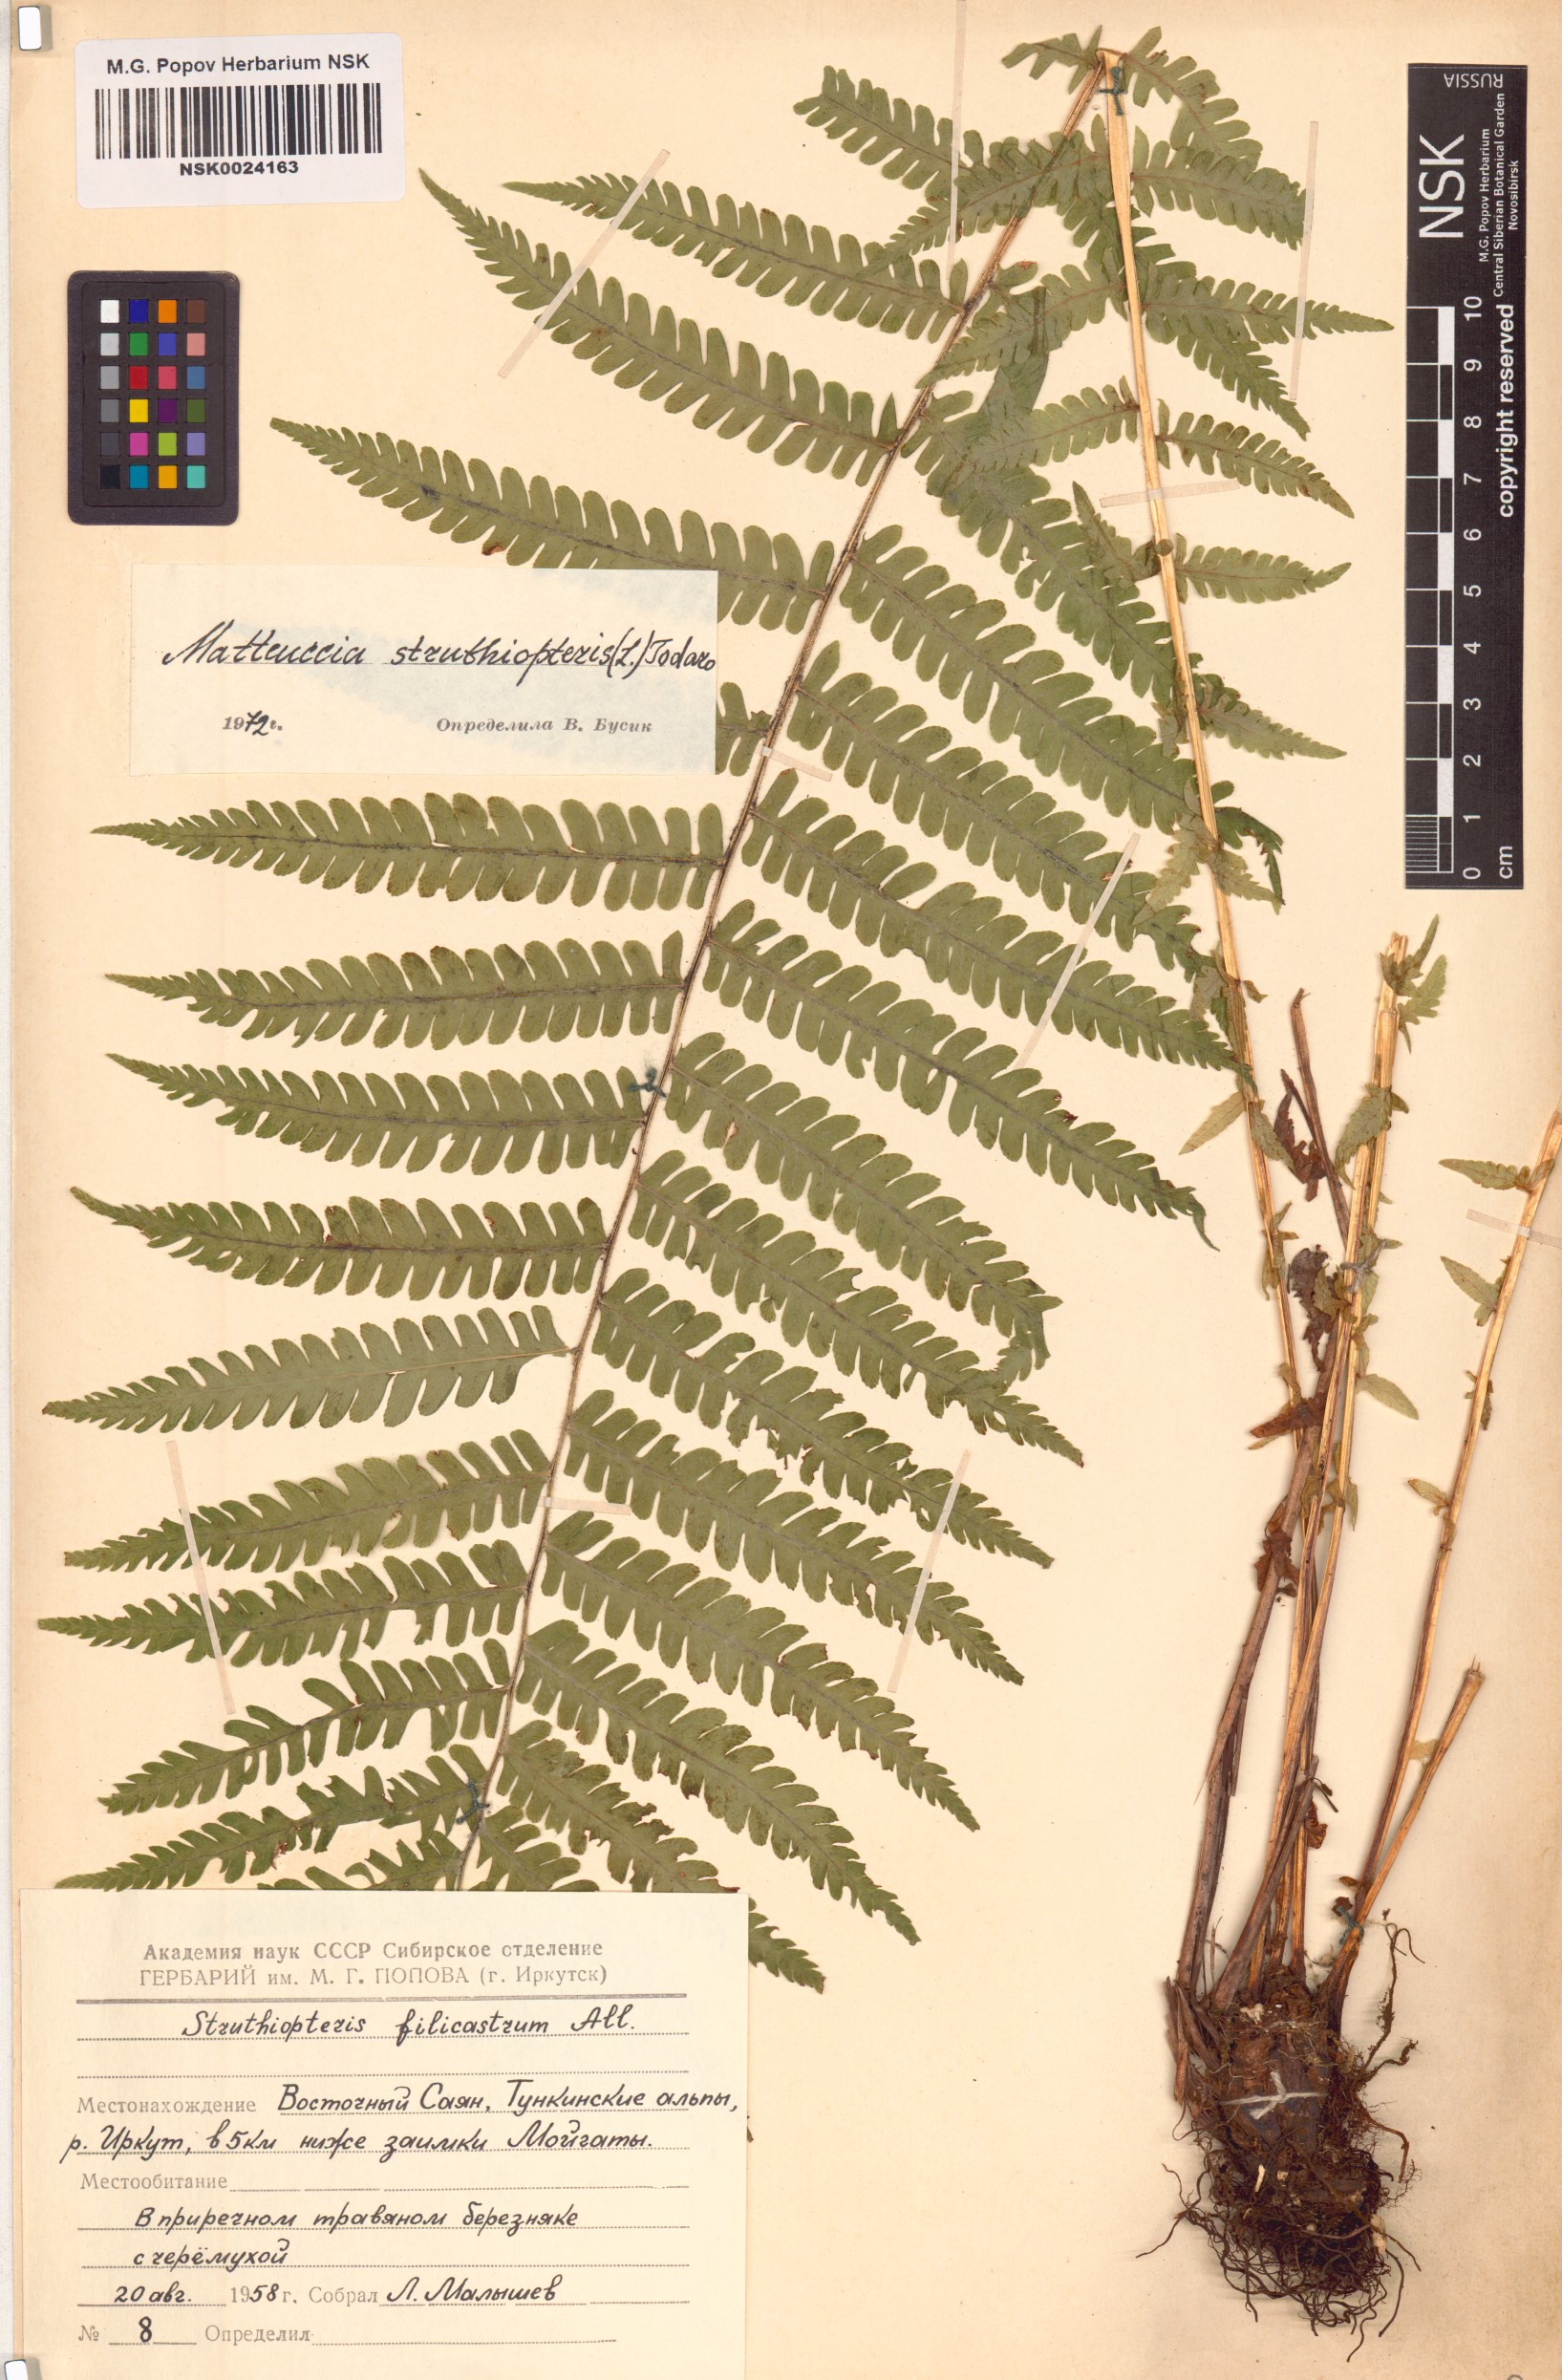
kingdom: Plantae
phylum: Tracheophyta
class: Polypodiopsida
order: Polypodiales
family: Onocleaceae
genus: Matteuccia
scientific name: Matteuccia struthiopteris
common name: Ostrich fern
